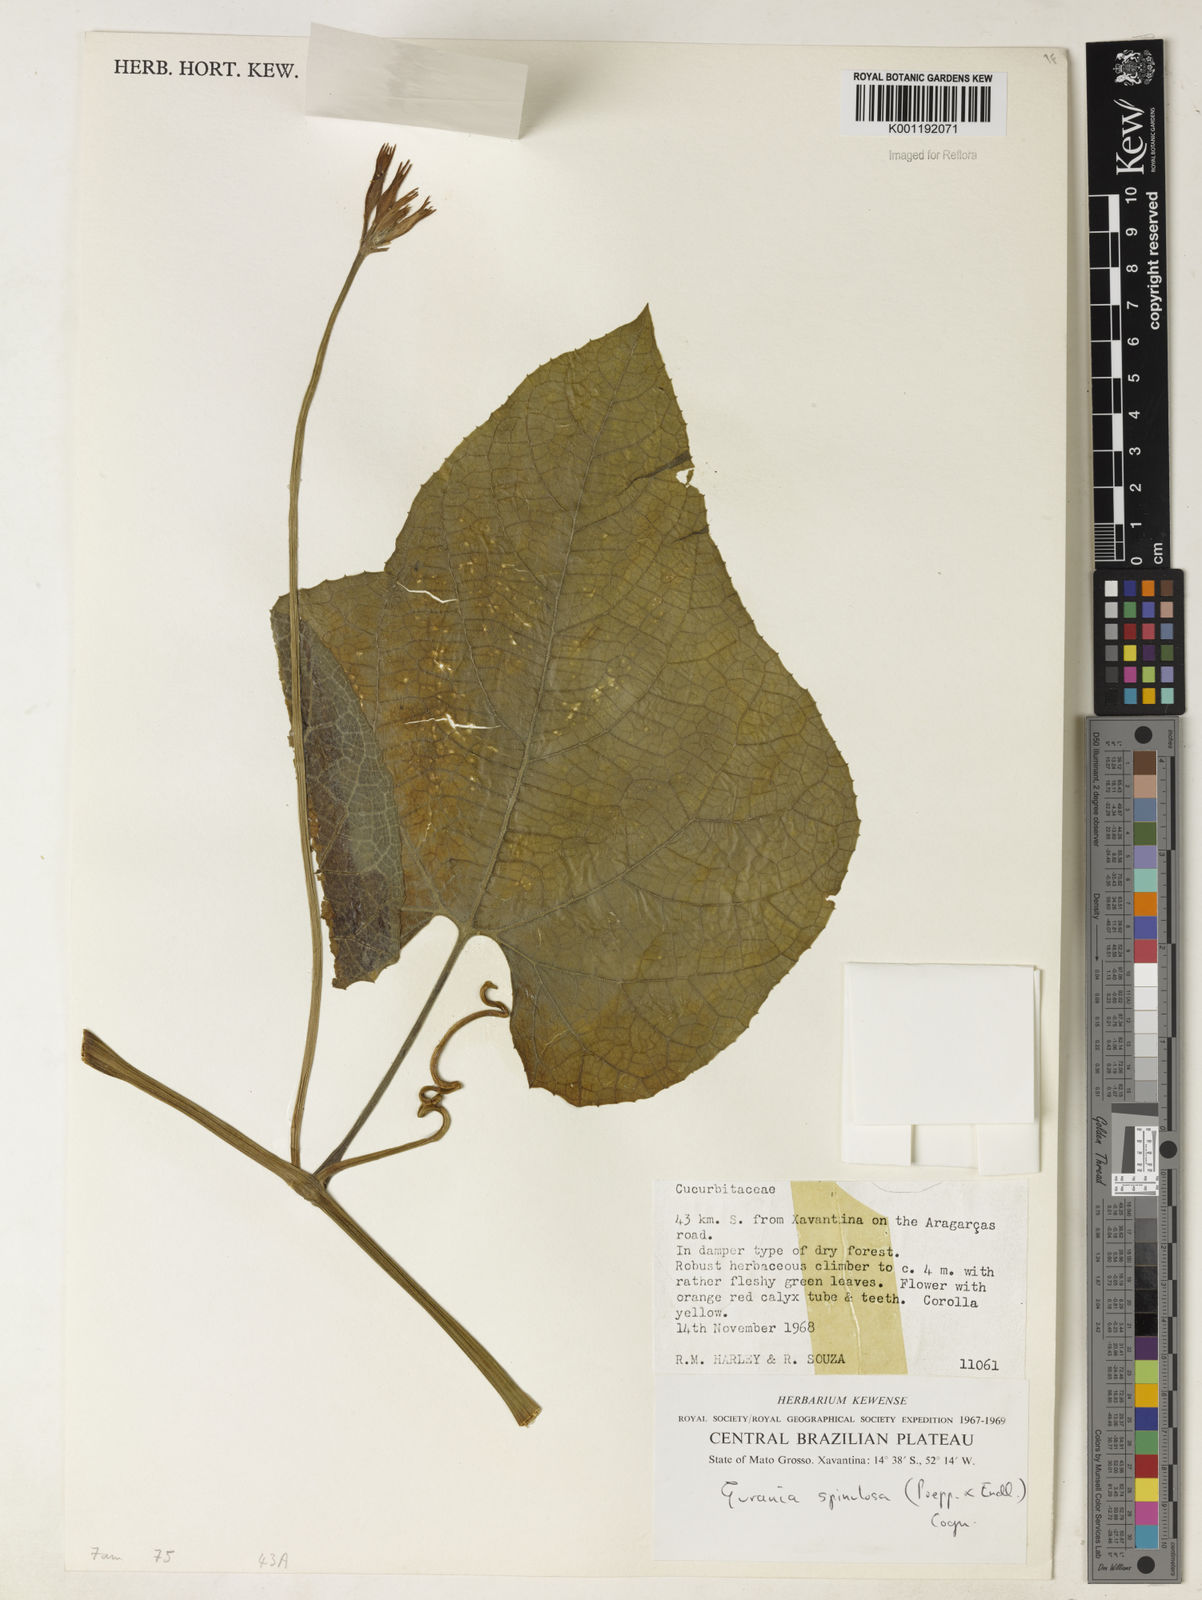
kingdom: Plantae
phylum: Tracheophyta
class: Magnoliopsida
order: Cucurbitales
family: Cucurbitaceae
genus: Gurania
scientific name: Gurania lobata
